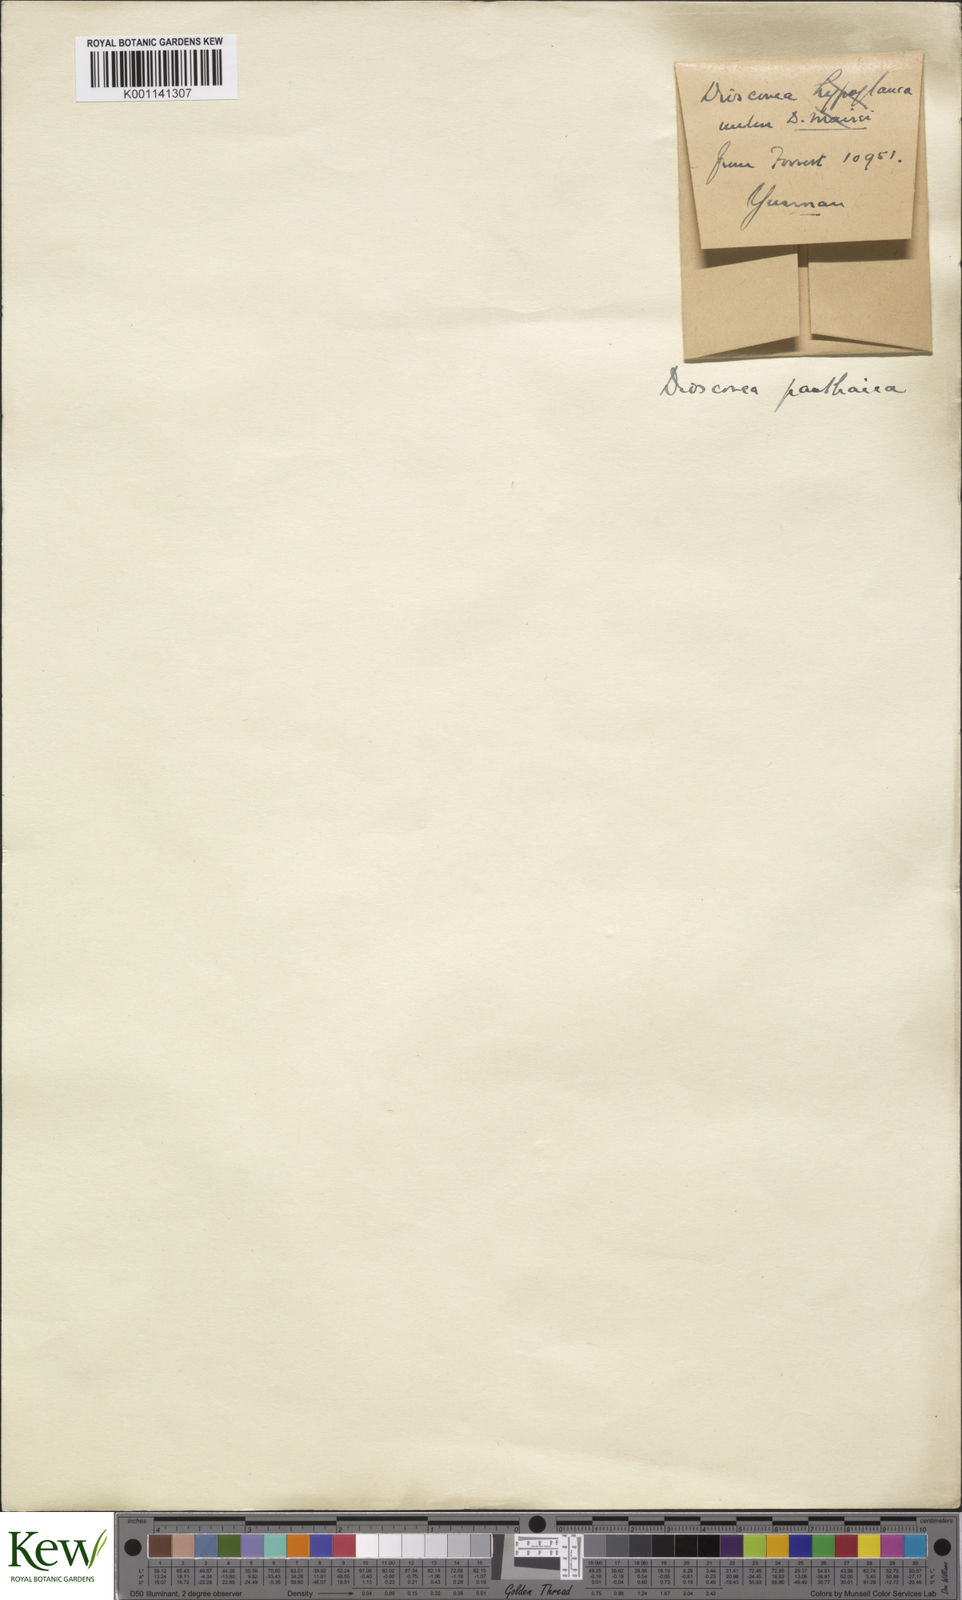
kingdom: Plantae
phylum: Tracheophyta
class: Liliopsida
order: Dioscoreales
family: Dioscoreaceae
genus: Dioscorea
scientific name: Dioscorea panthaica
